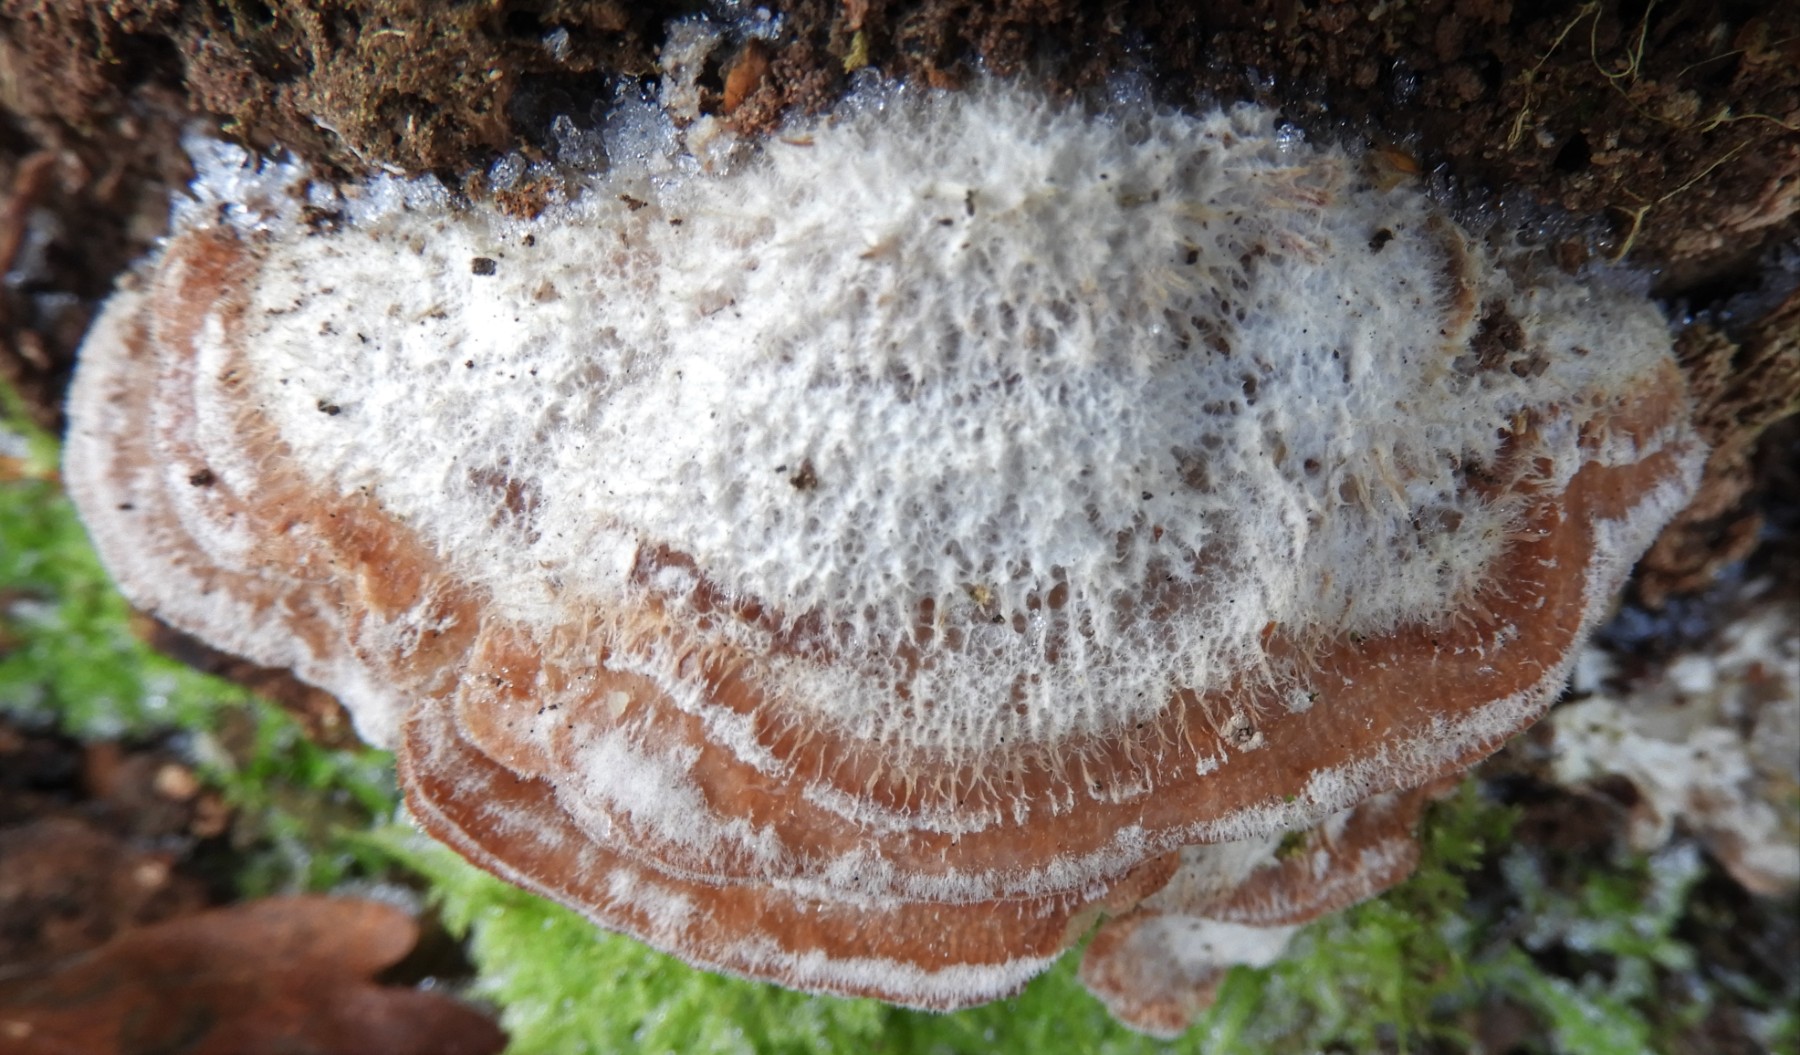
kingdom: Fungi
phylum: Basidiomycota
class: Agaricomycetes
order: Polyporales
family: Meruliaceae
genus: Phlebia
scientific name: Phlebia tremellosa
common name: bævrende åresvamp
